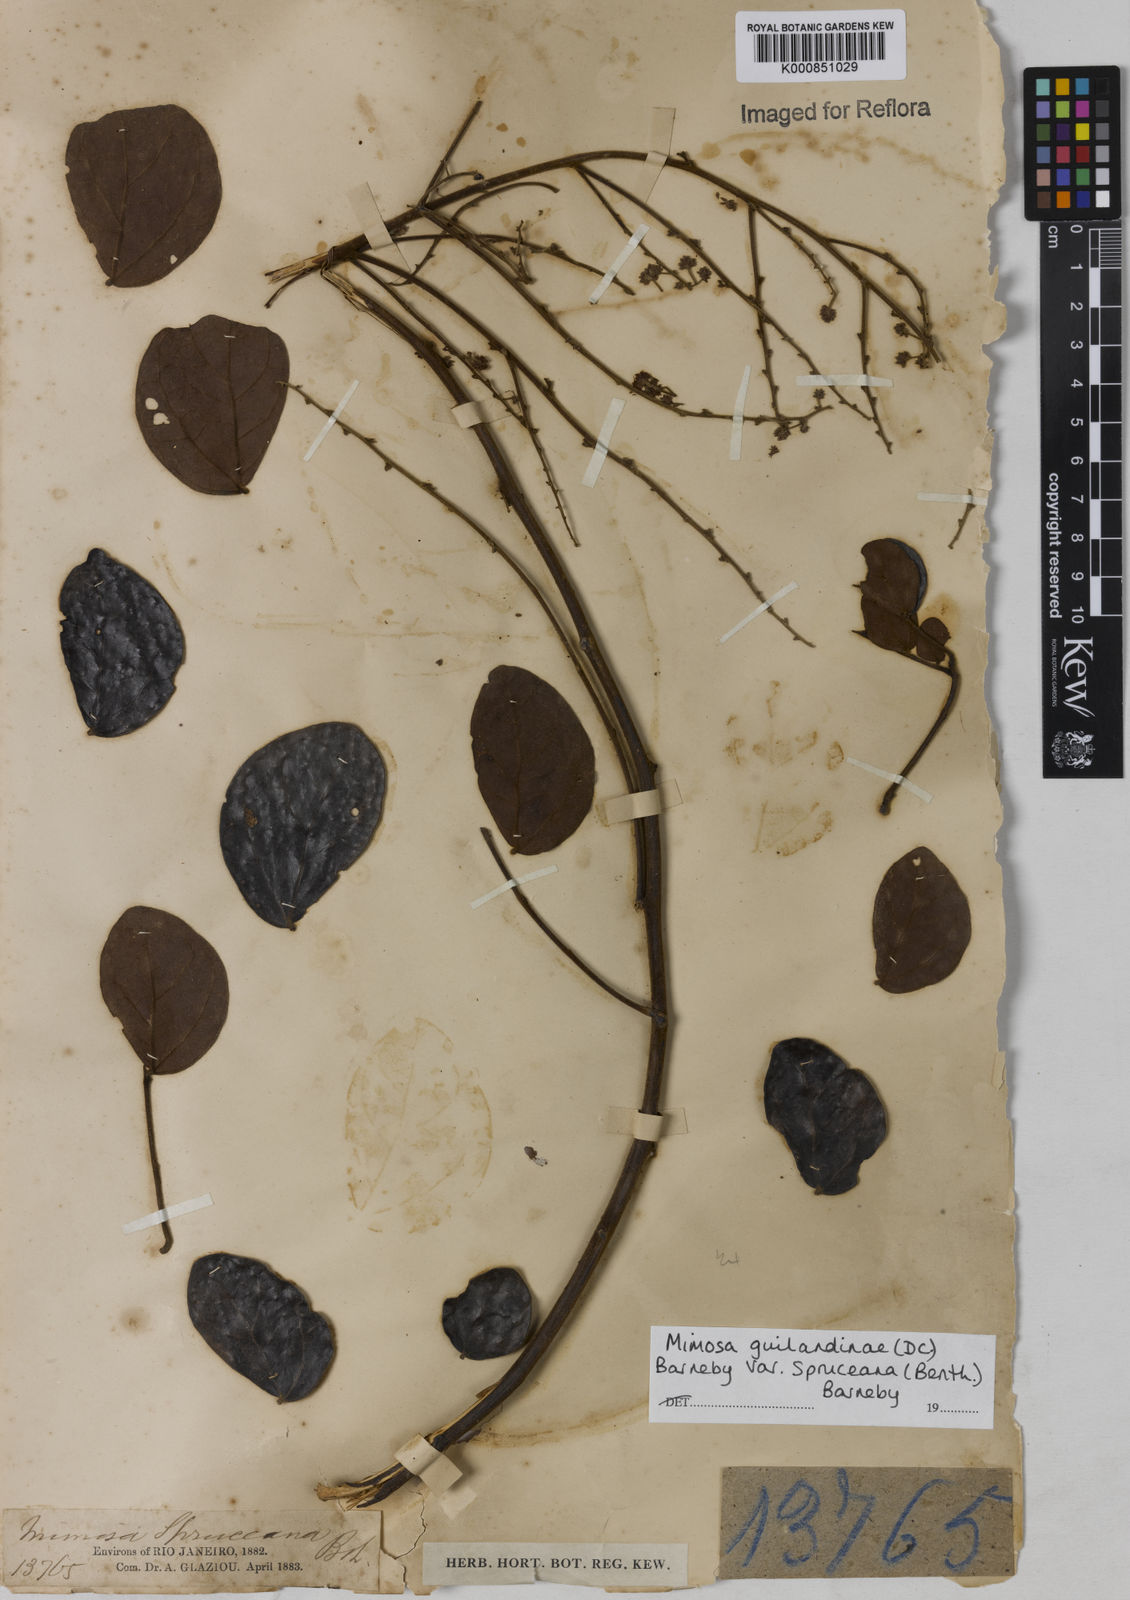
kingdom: Plantae
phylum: Tracheophyta
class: Magnoliopsida
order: Fabales
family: Fabaceae
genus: Mimosa
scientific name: Mimosa guilandinae
